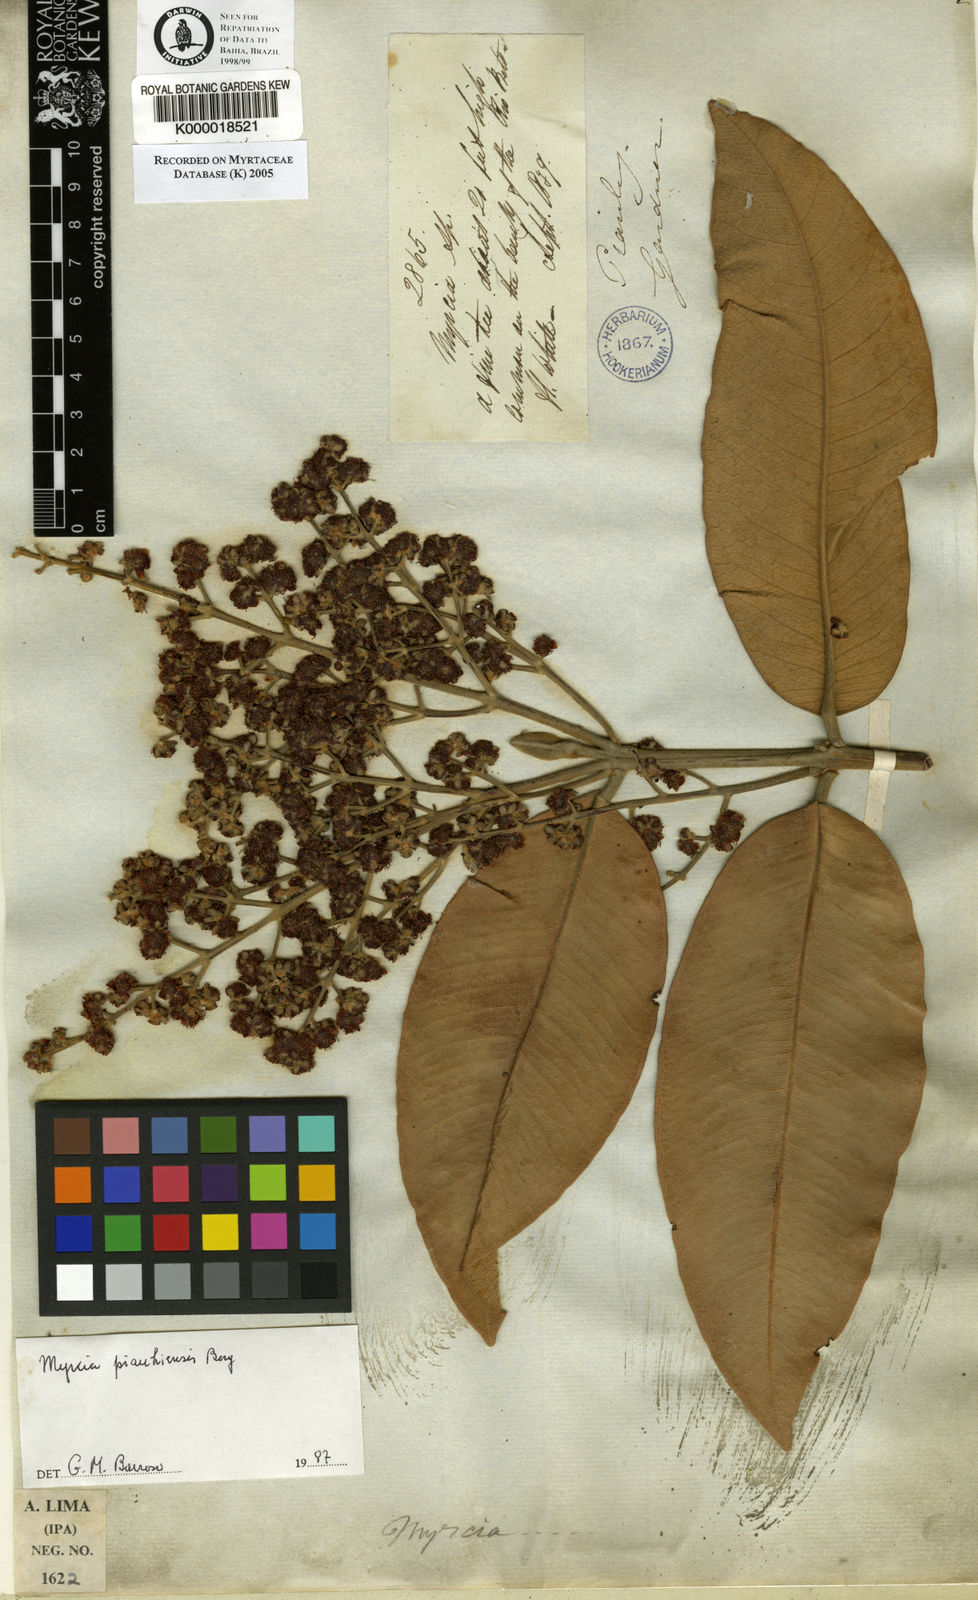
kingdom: Plantae
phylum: Tracheophyta
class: Magnoliopsida
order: Myrtales
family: Myrtaceae
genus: Myrcia
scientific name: Myrcia tomentosa
